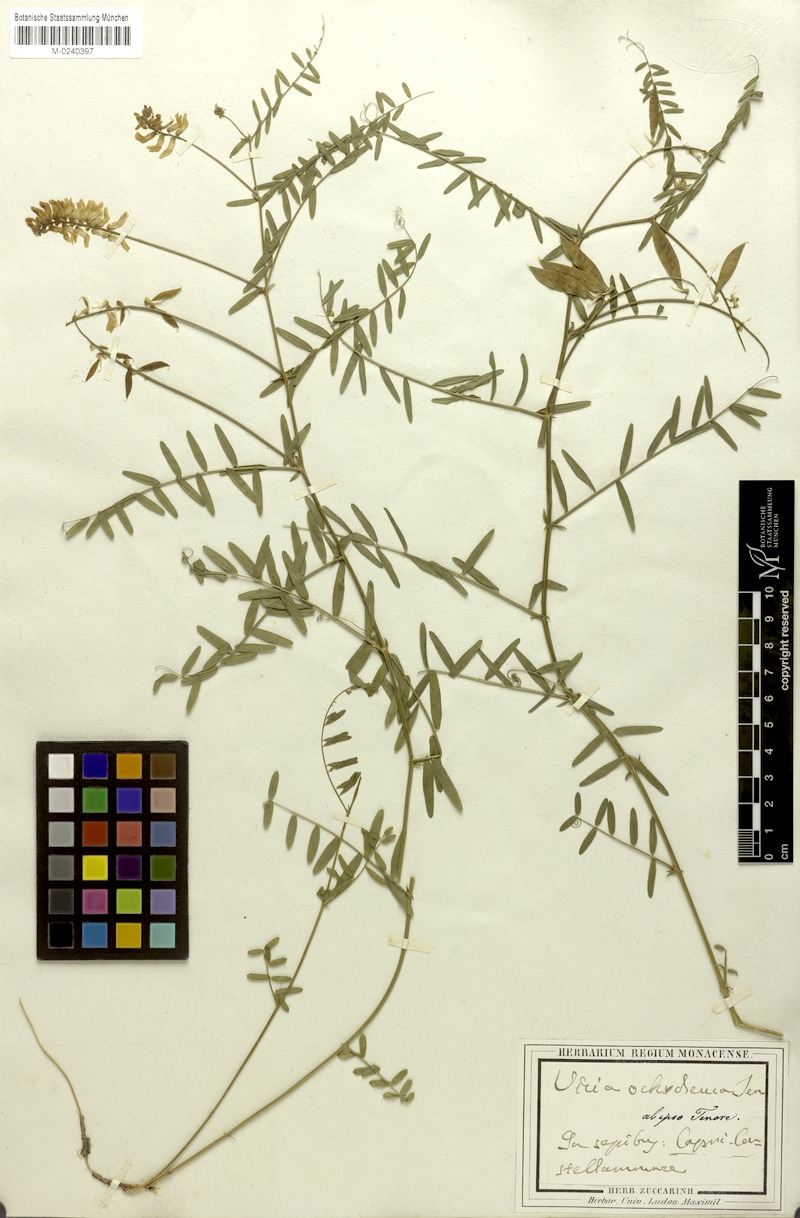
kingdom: Plantae
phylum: Tracheophyta
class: Magnoliopsida
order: Fabales
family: Fabaceae
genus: Vicia
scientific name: Vicia ochroleuca
